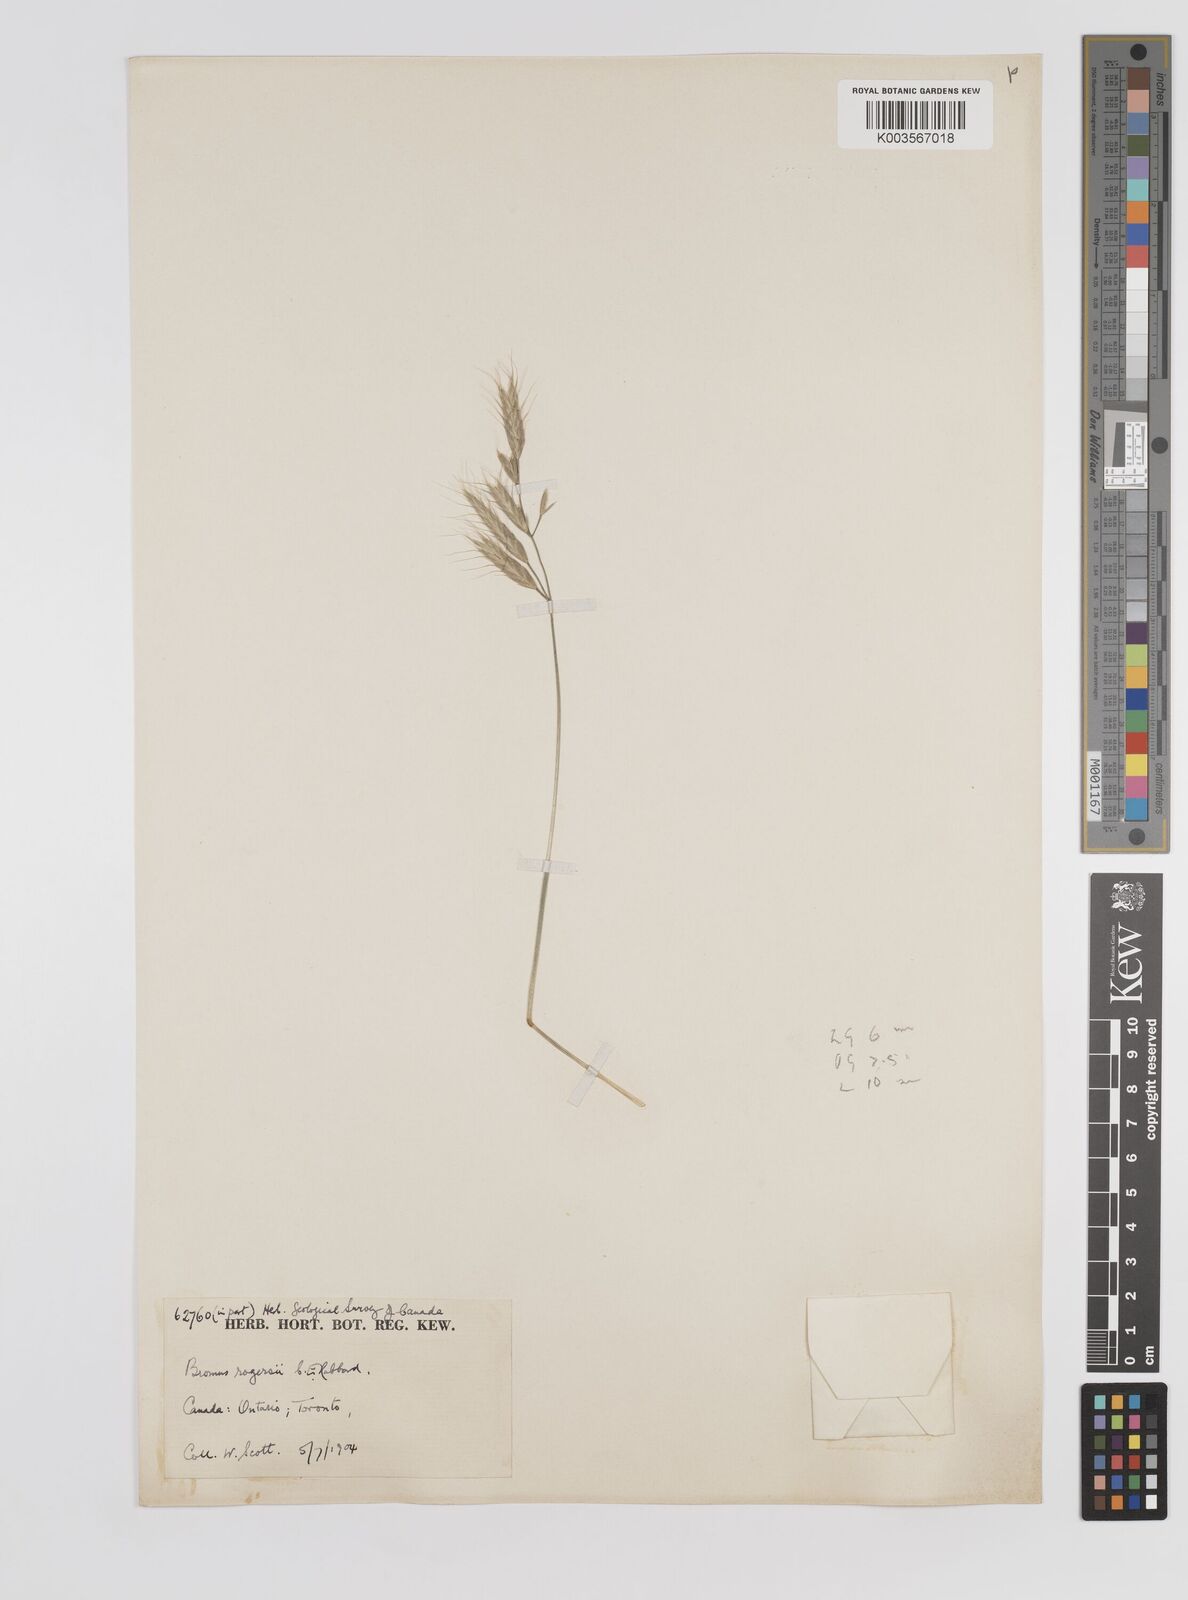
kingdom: Plantae
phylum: Tracheophyta
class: Liliopsida
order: Poales
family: Poaceae
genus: Bromus
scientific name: Bromus danthoniae
